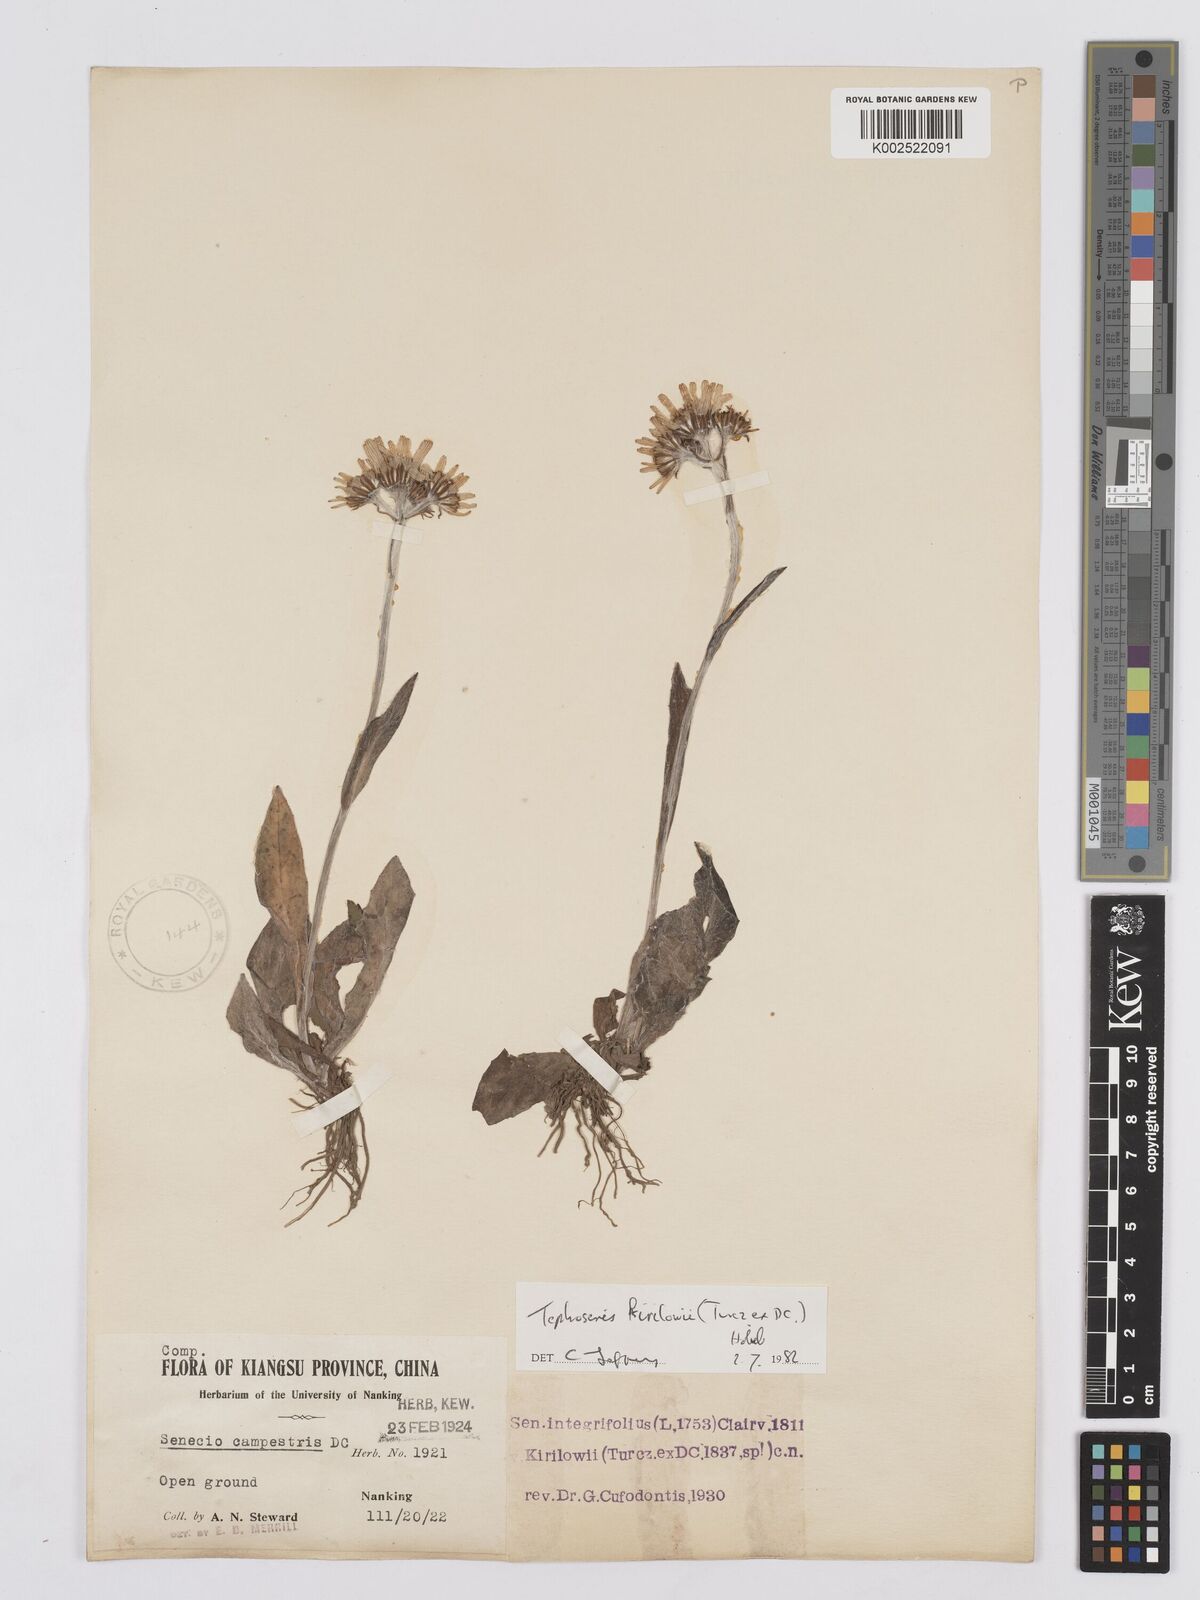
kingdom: Plantae
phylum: Tracheophyta
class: Magnoliopsida
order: Asterales
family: Asteraceae
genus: Tephroseris
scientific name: Tephroseris kirilowii
